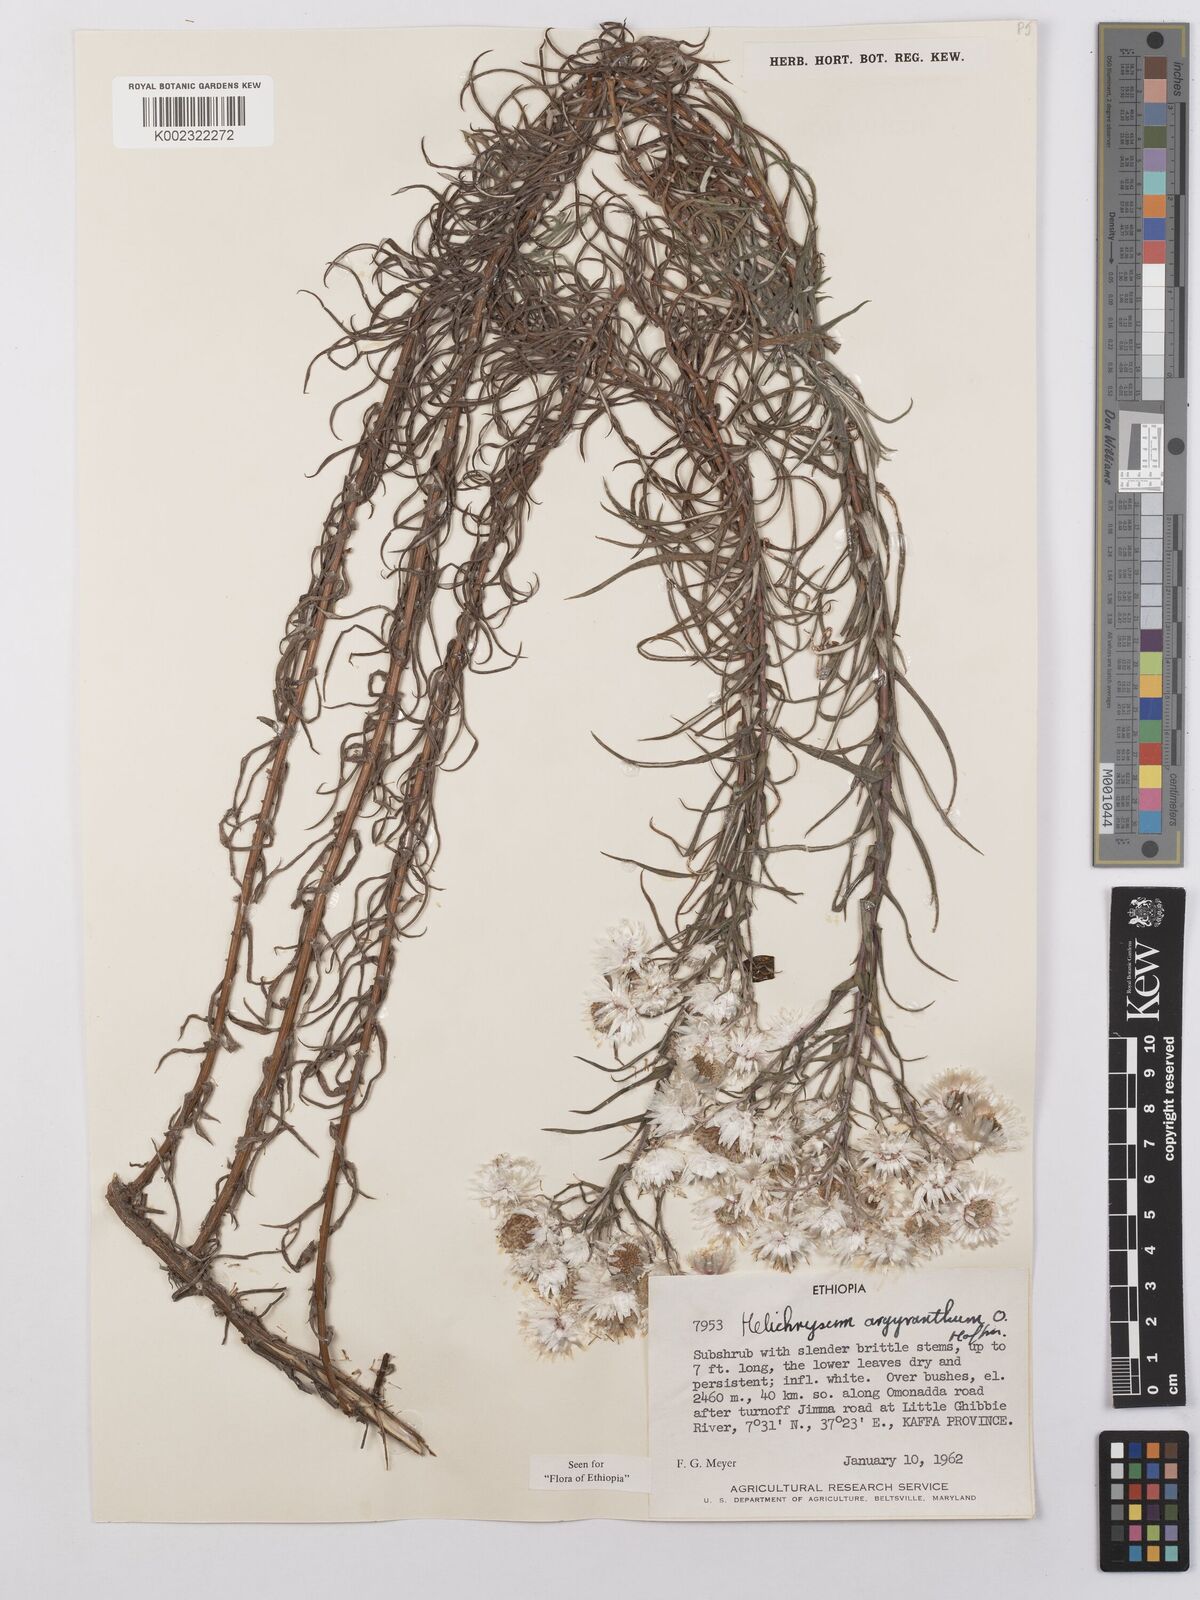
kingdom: Plantae
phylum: Tracheophyta
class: Magnoliopsida
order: Asterales
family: Asteraceae
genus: Helichrysum
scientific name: Helichrysum argyranthum
